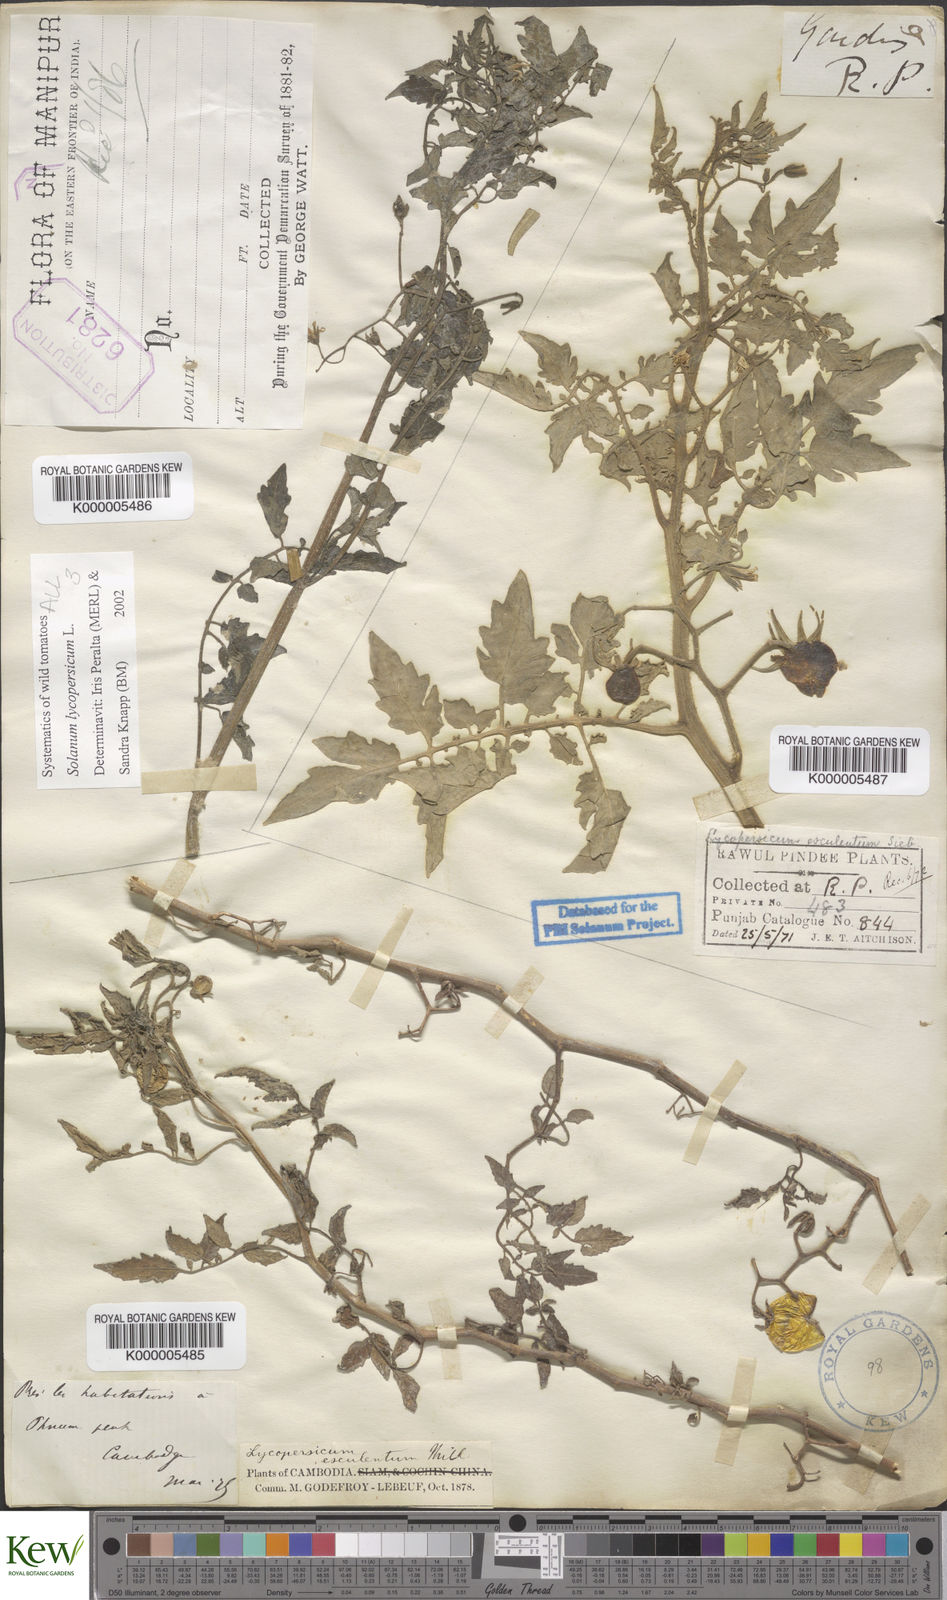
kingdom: Plantae
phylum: Tracheophyta
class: Magnoliopsida
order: Solanales
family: Solanaceae
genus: Solanum
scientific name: Solanum lycopersicum
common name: Garden tomato
